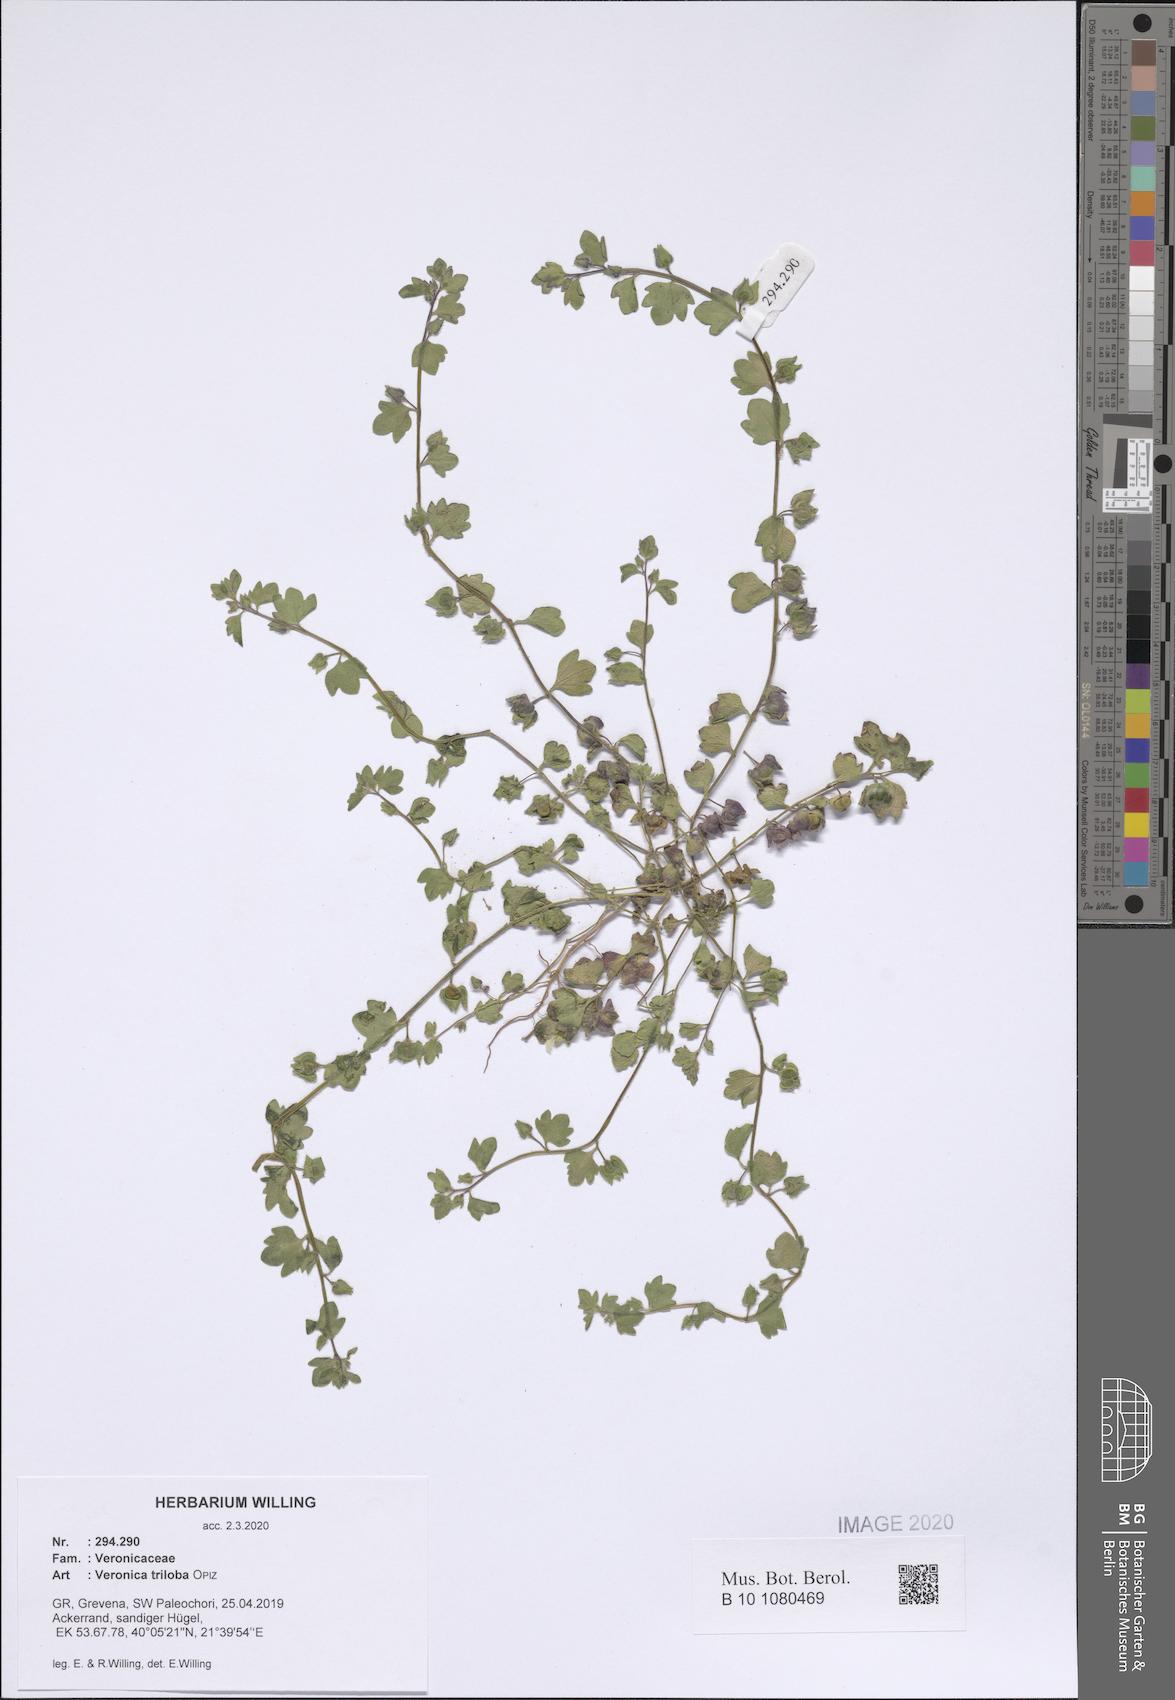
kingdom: Plantae
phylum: Tracheophyta
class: Magnoliopsida
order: Lamiales
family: Plantaginaceae
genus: Veronica
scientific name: Veronica triloba
